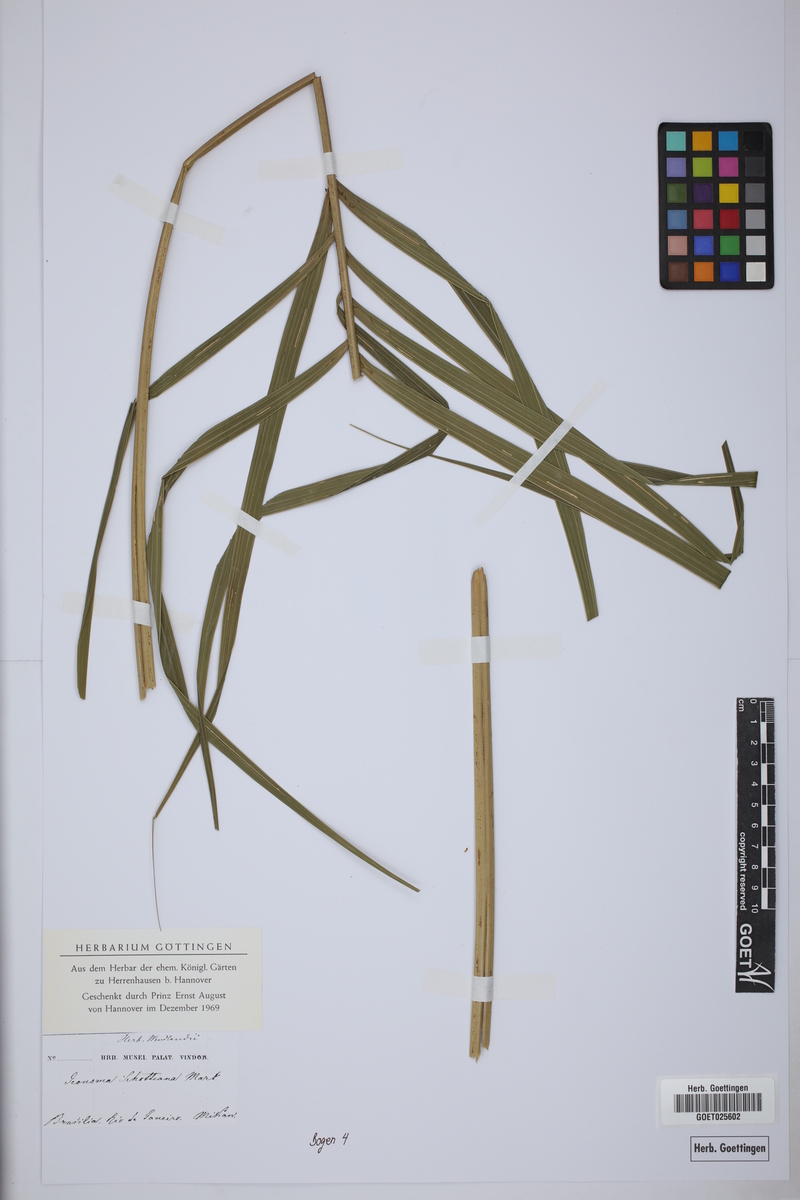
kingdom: Plantae
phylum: Tracheophyta
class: Liliopsida
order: Arecales
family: Arecaceae
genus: Geonoma
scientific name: Geonoma schottiana
